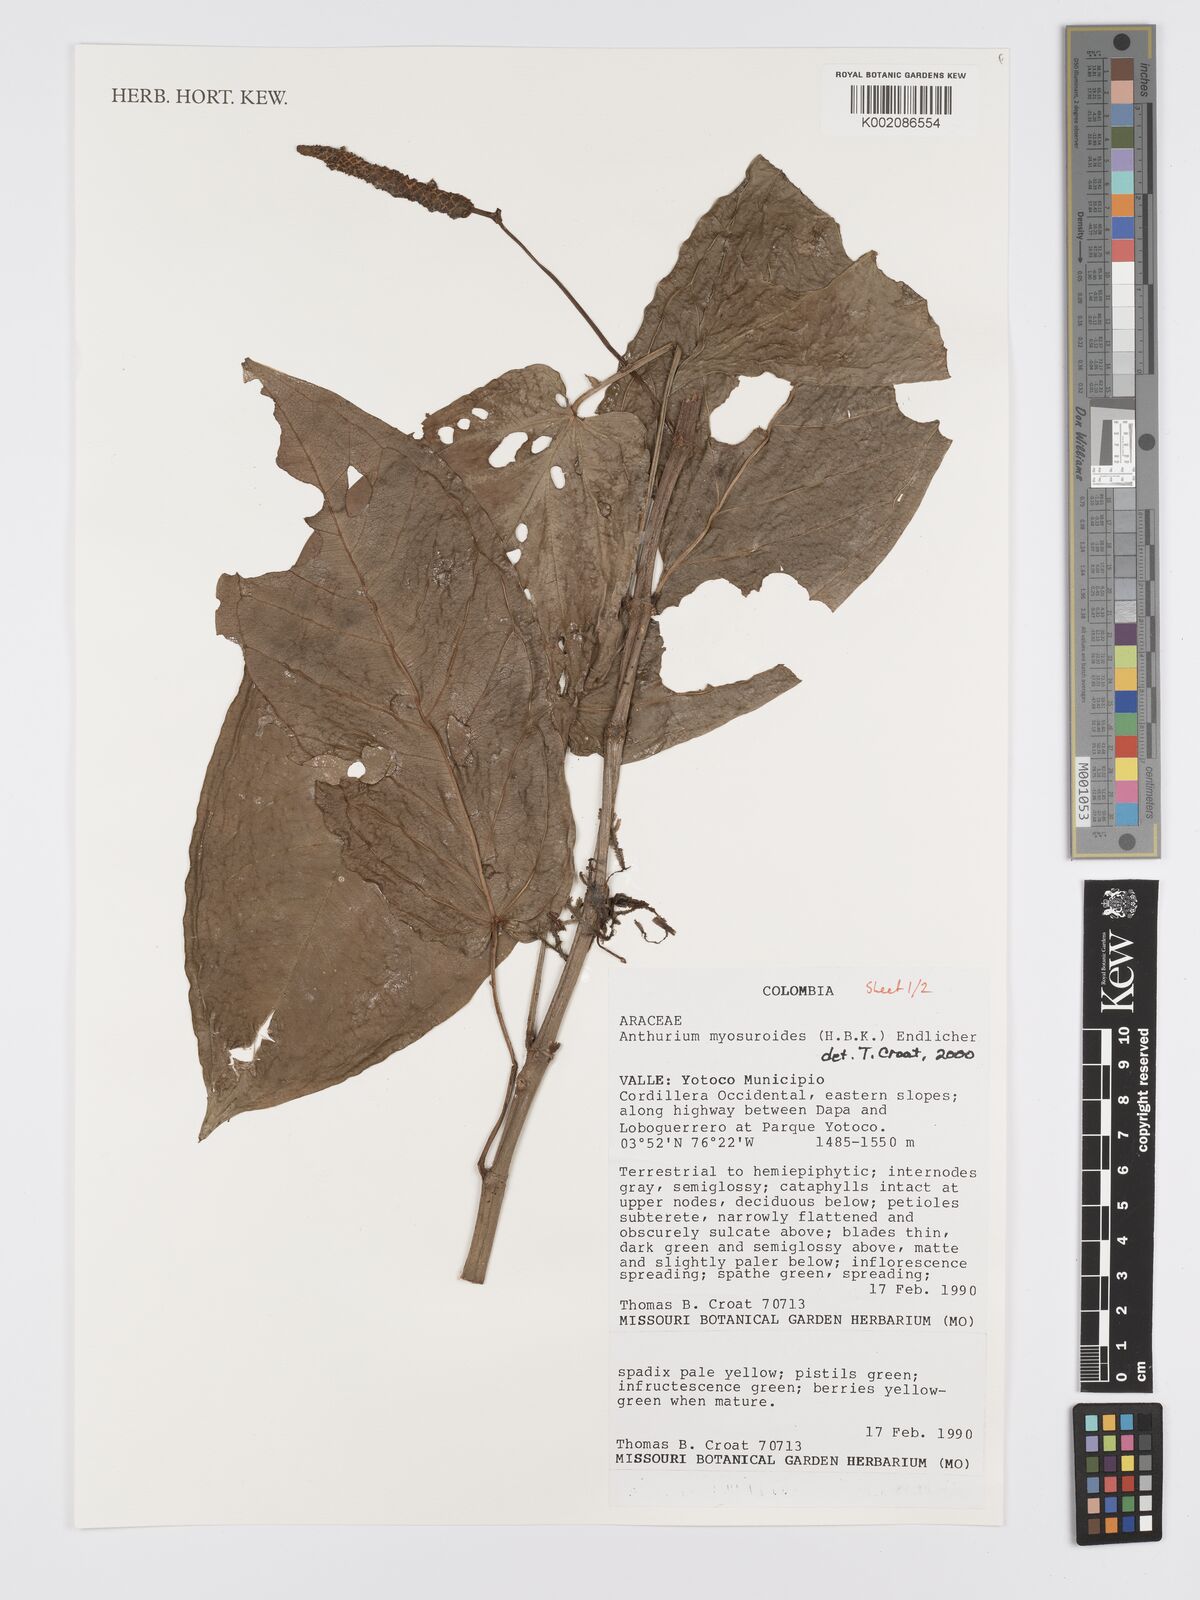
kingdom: Plantae
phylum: Tracheophyta
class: Liliopsida
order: Alismatales
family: Araceae
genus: Anthurium
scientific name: Anthurium myosuroides
